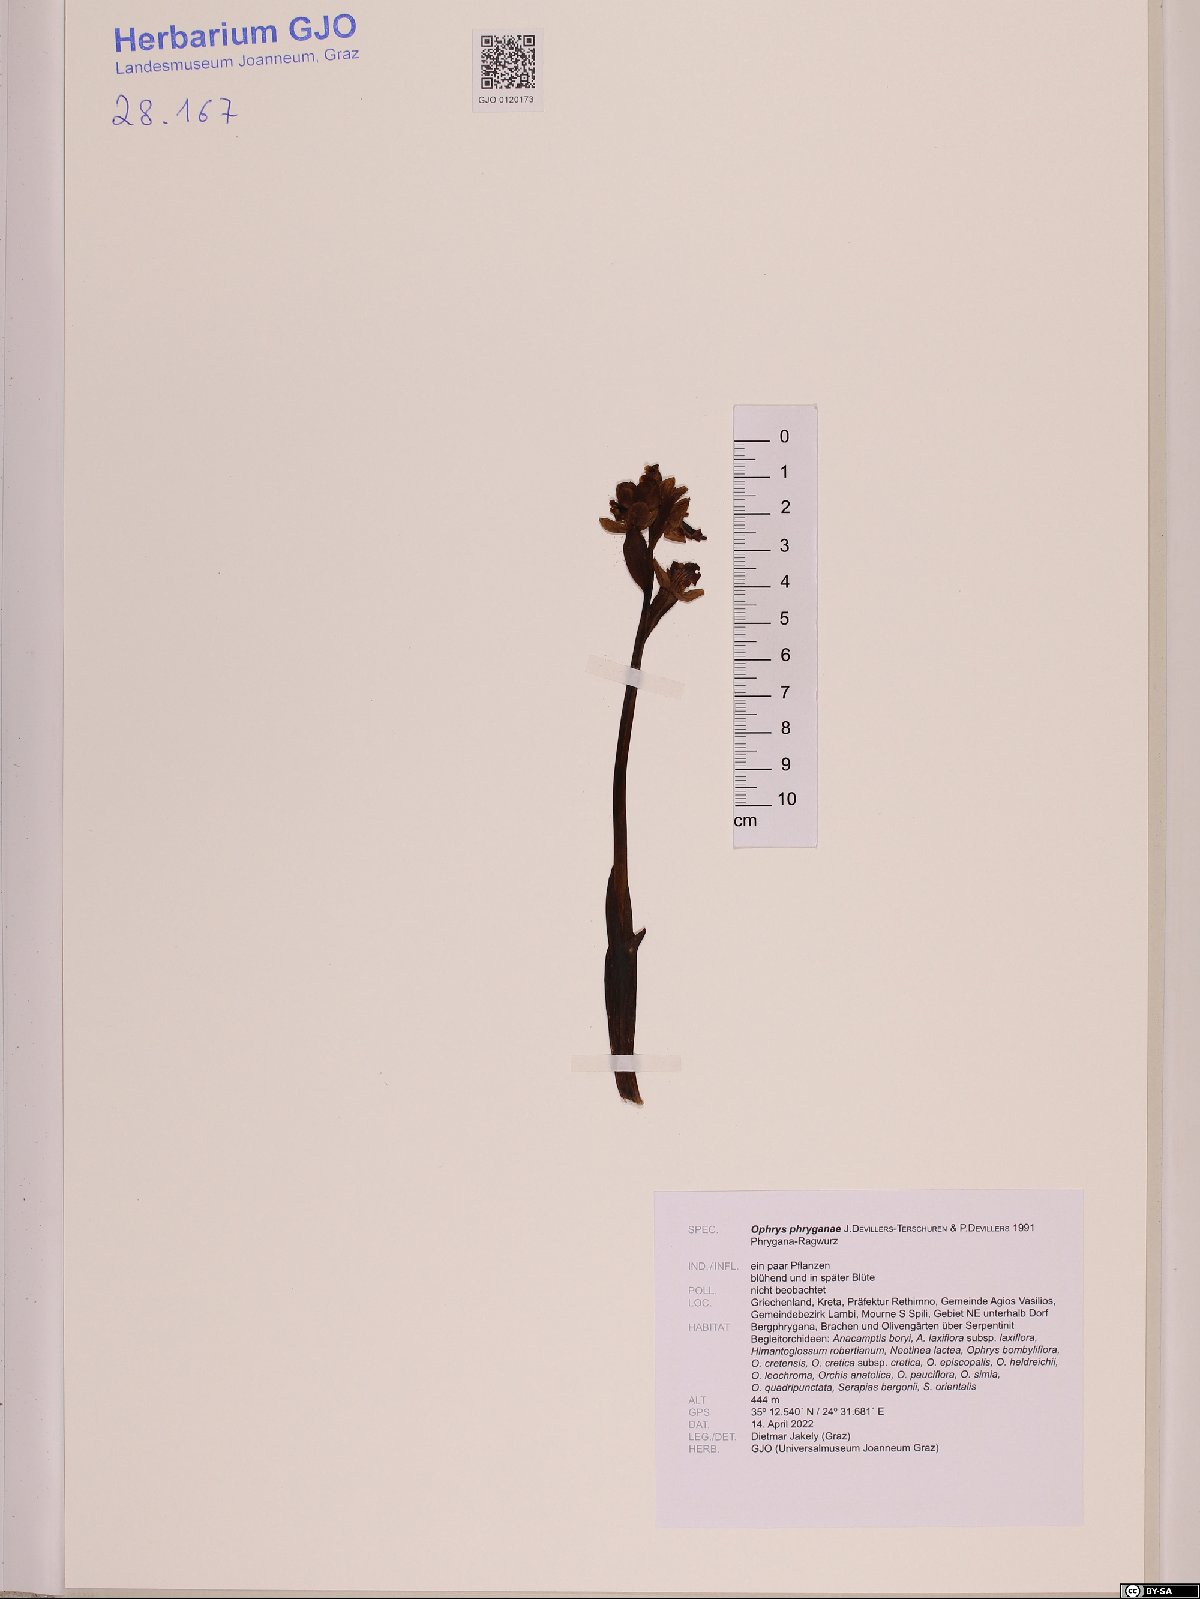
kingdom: Plantae
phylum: Tracheophyta
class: Liliopsida
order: Asparagales
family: Orchidaceae
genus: Ophrys
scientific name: Ophrys lutea
